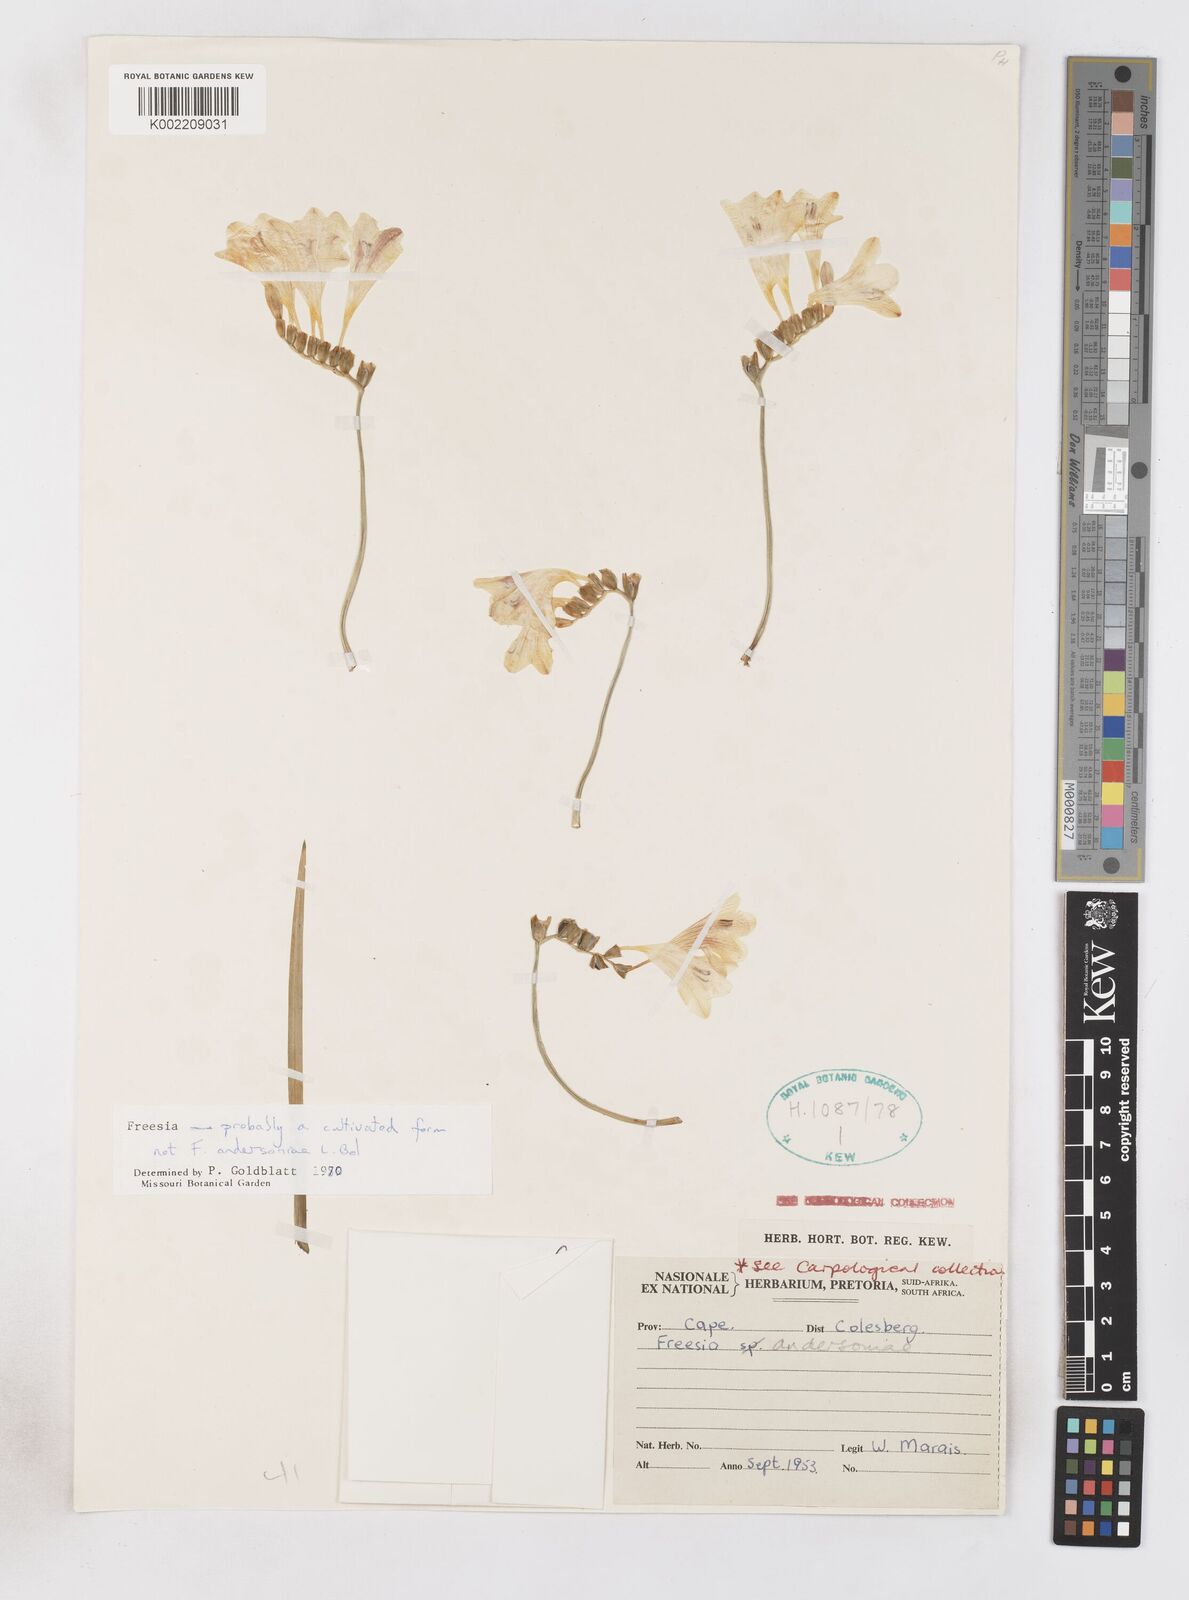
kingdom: Plantae
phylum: Tracheophyta
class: Liliopsida
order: Asparagales
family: Iridaceae
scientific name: Iridaceae
